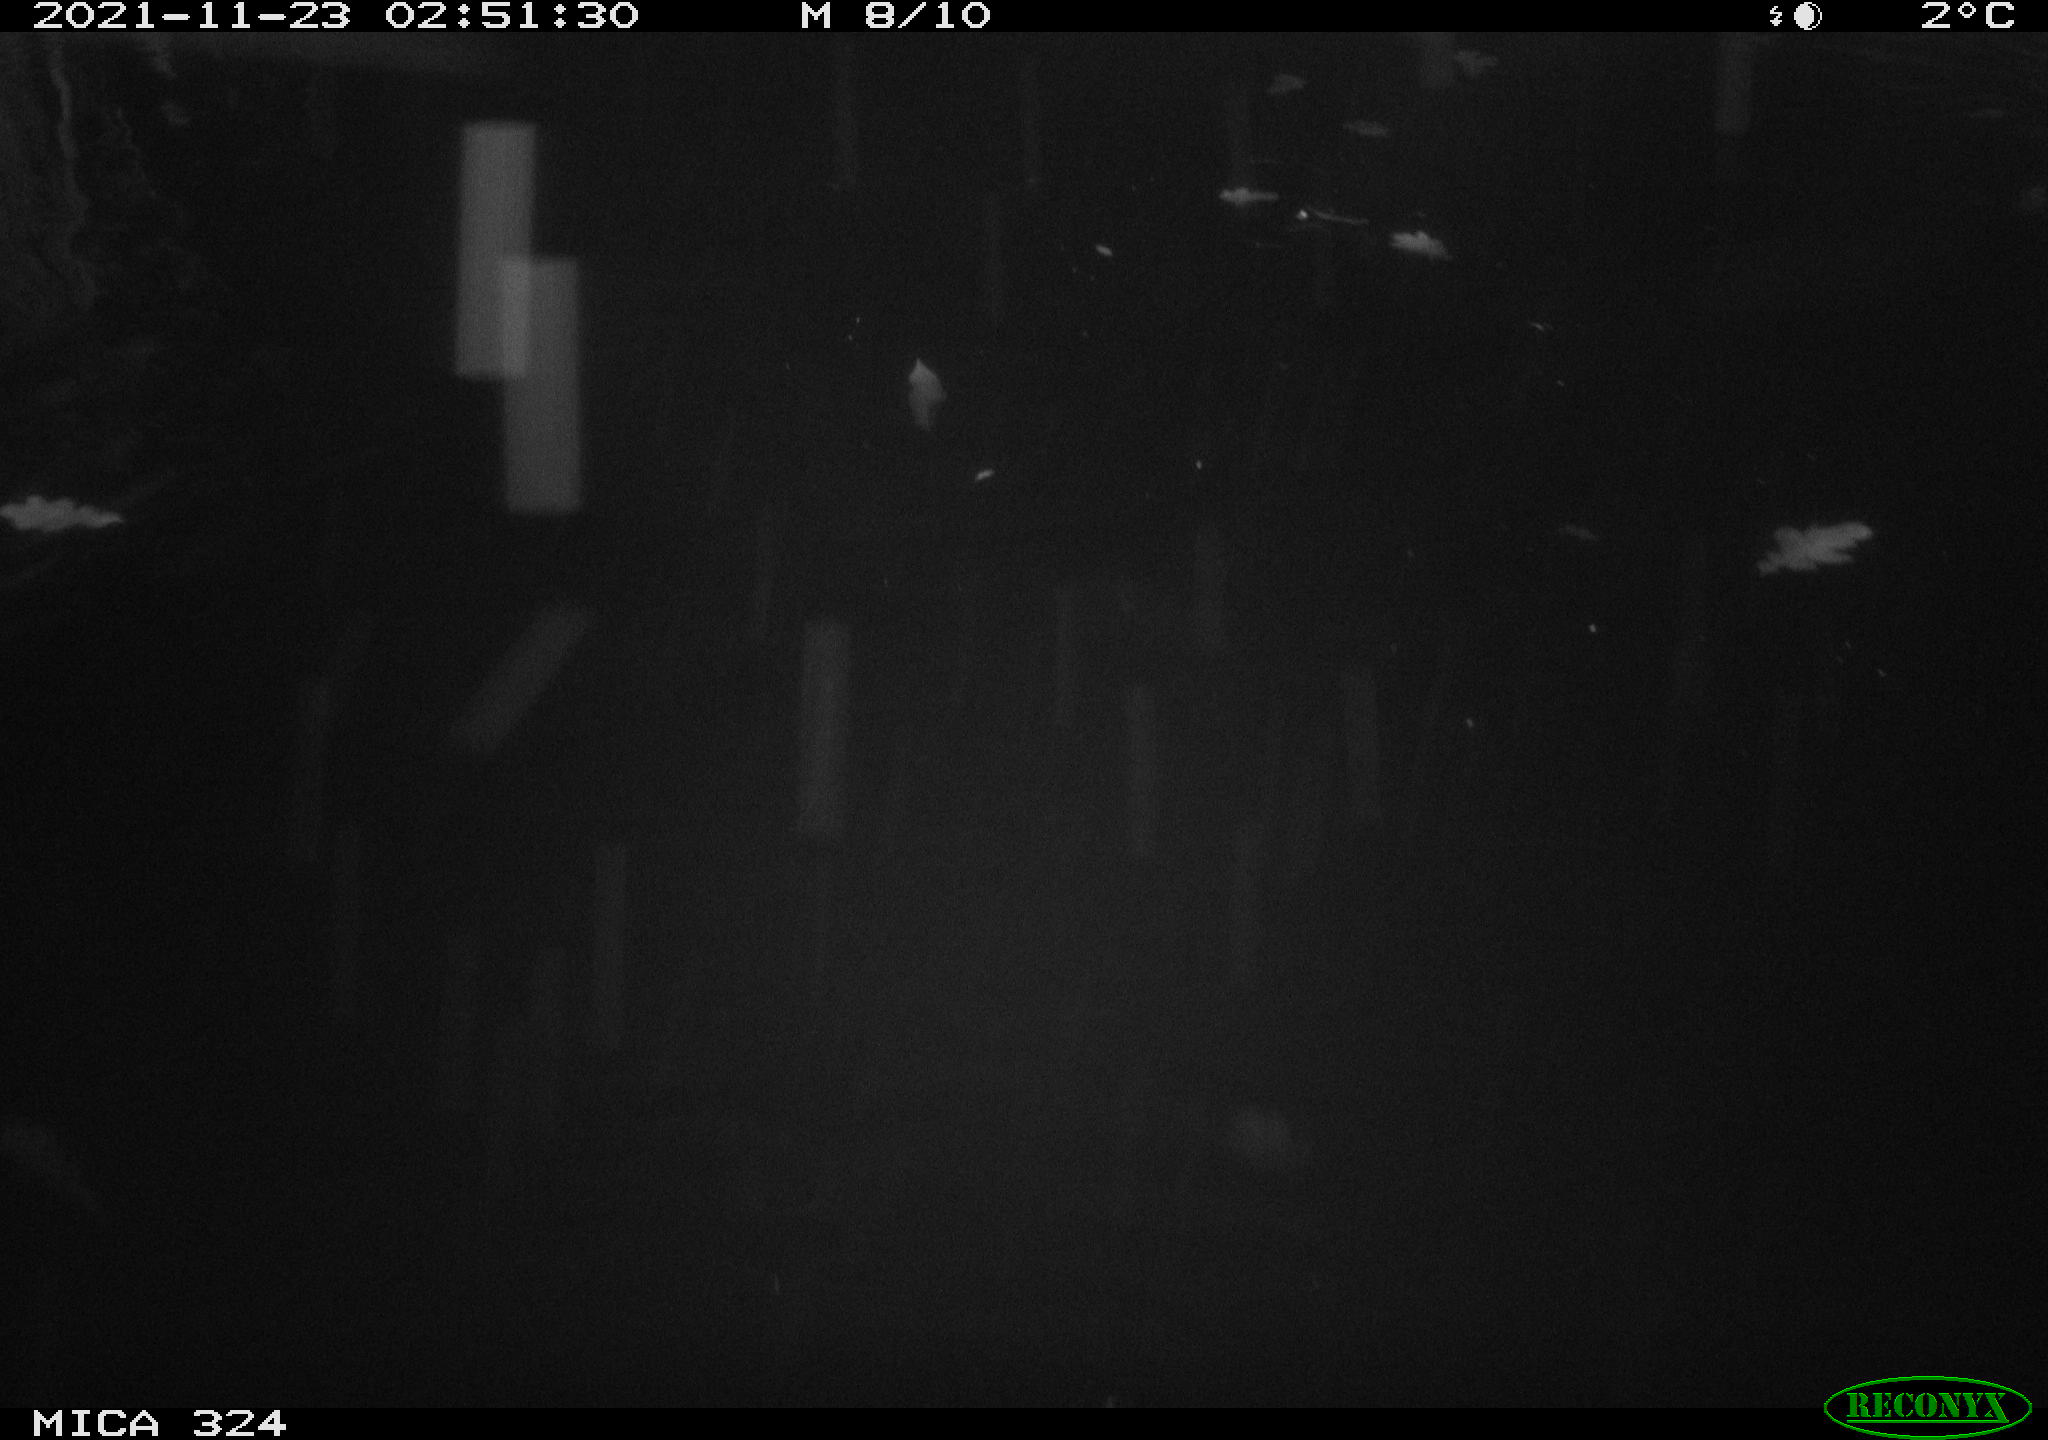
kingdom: Animalia
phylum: Chordata
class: Mammalia
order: Rodentia
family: Cricetidae
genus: Ondatra
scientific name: Ondatra zibethicus
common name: Muskrat
